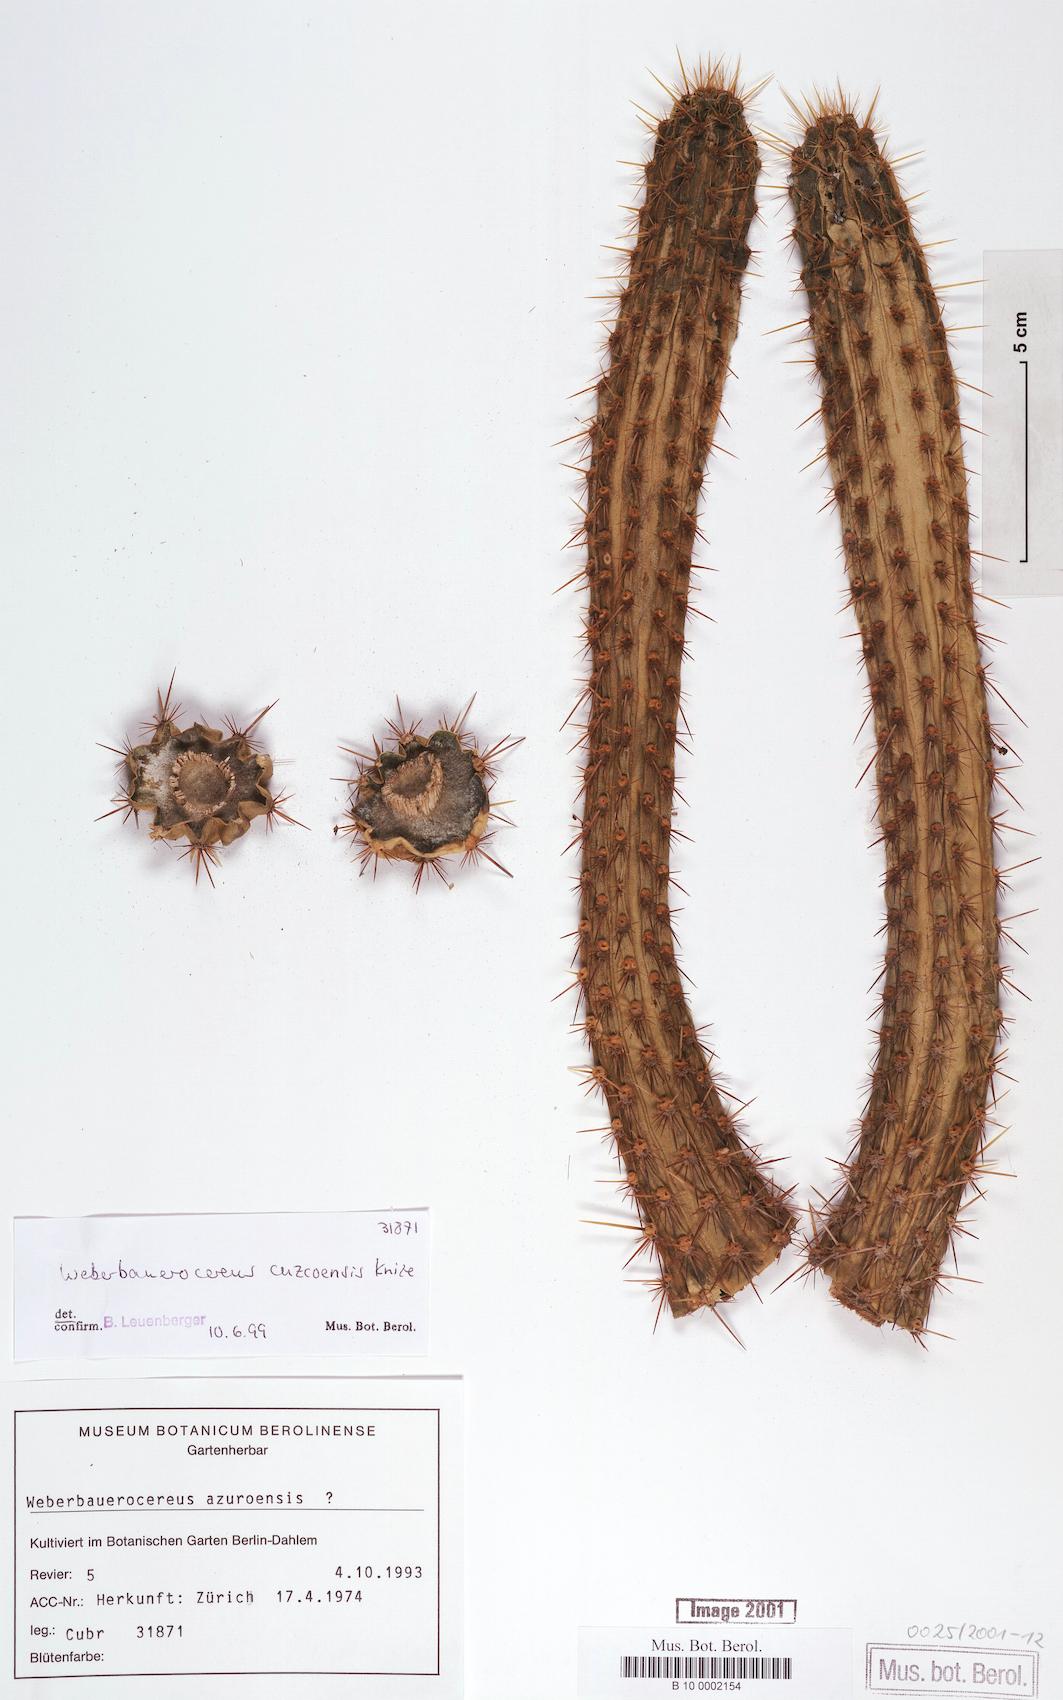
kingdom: Plantae
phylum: Tracheophyta
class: Magnoliopsida
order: Caryophyllales
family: Cactaceae
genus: Weberbauerocereus
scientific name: Weberbauerocereus cuzcoensis
